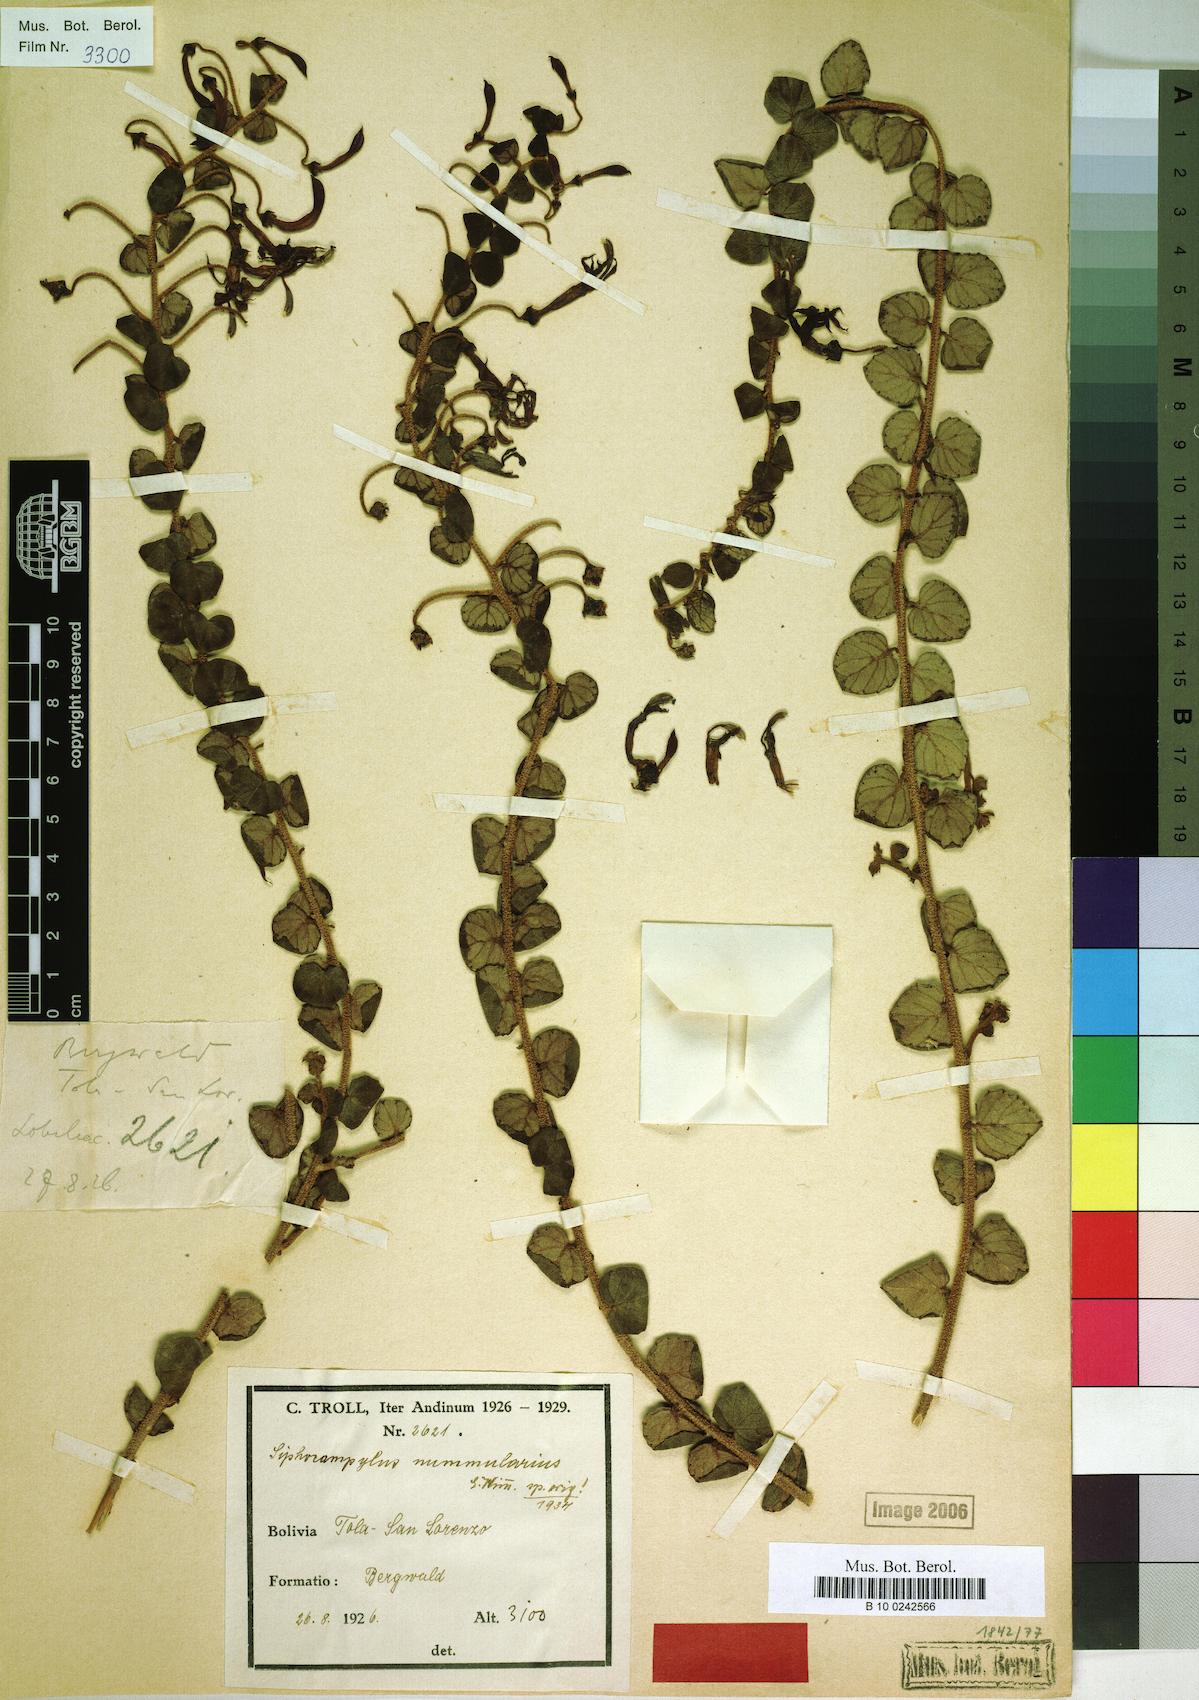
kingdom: Plantae
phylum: Tracheophyta
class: Magnoliopsida
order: Asterales
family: Campanulaceae
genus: Siphocampylus
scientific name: Siphocampylus nummularius
